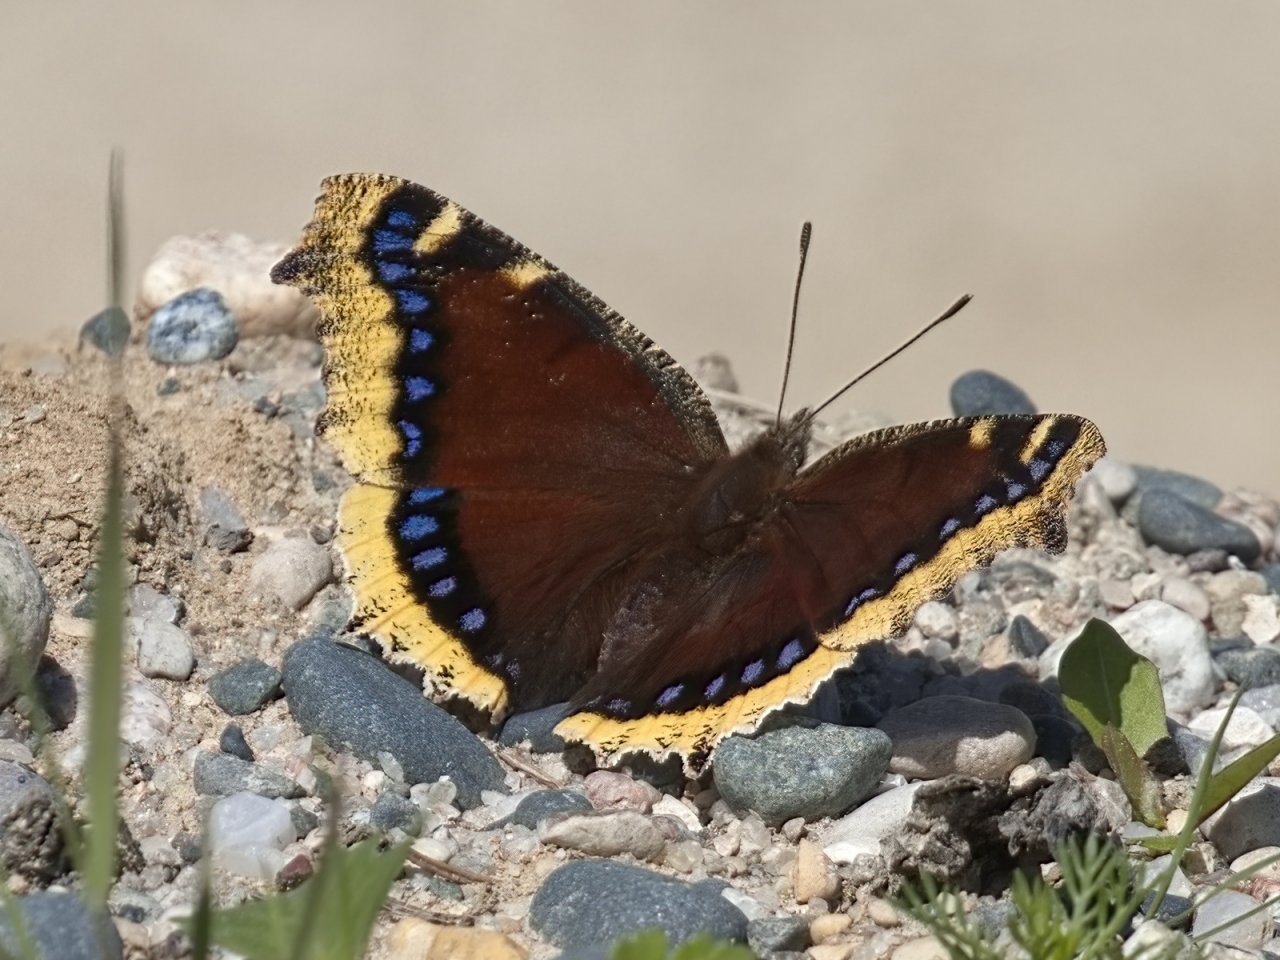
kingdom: Animalia
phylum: Arthropoda
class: Insecta
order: Lepidoptera
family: Nymphalidae
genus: Nymphalis
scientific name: Nymphalis antiopa
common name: Mourning Cloak
